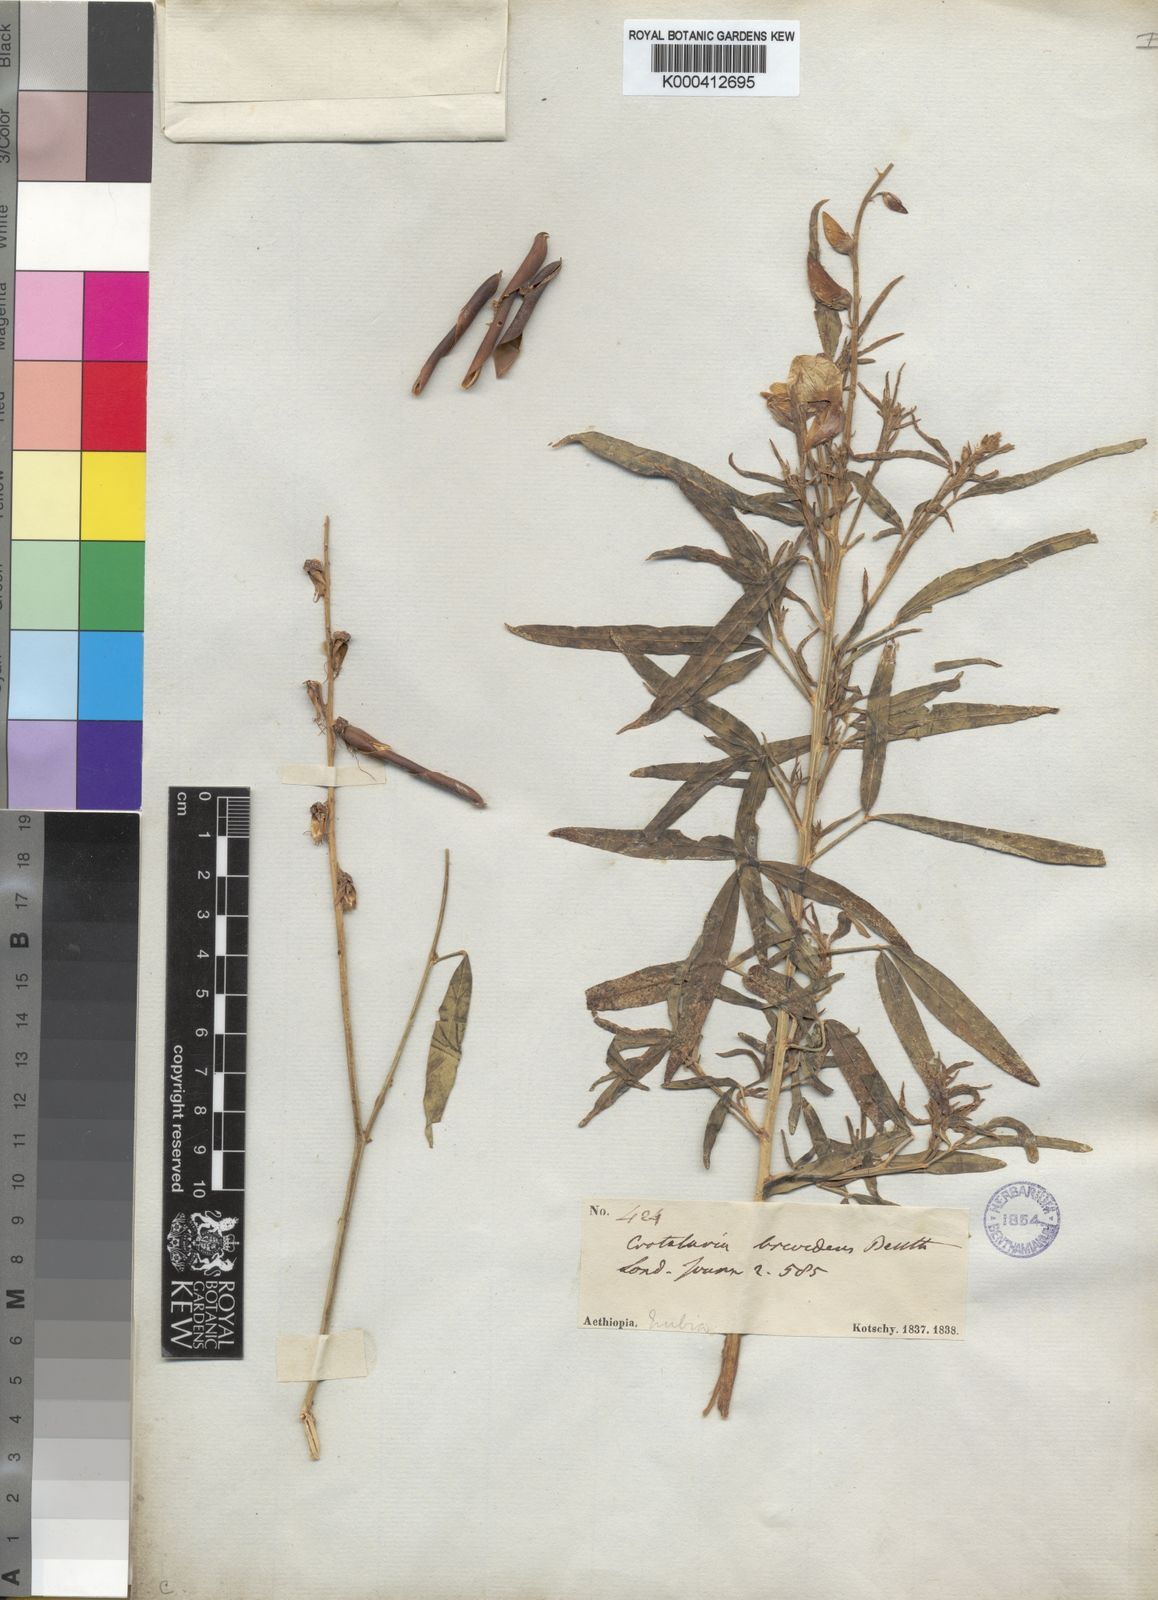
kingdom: Plantae
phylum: Tracheophyta
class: Magnoliopsida
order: Fabales
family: Fabaceae
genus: Crotalaria
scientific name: Crotalaria brevidens
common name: Ethiopian rattlebox
